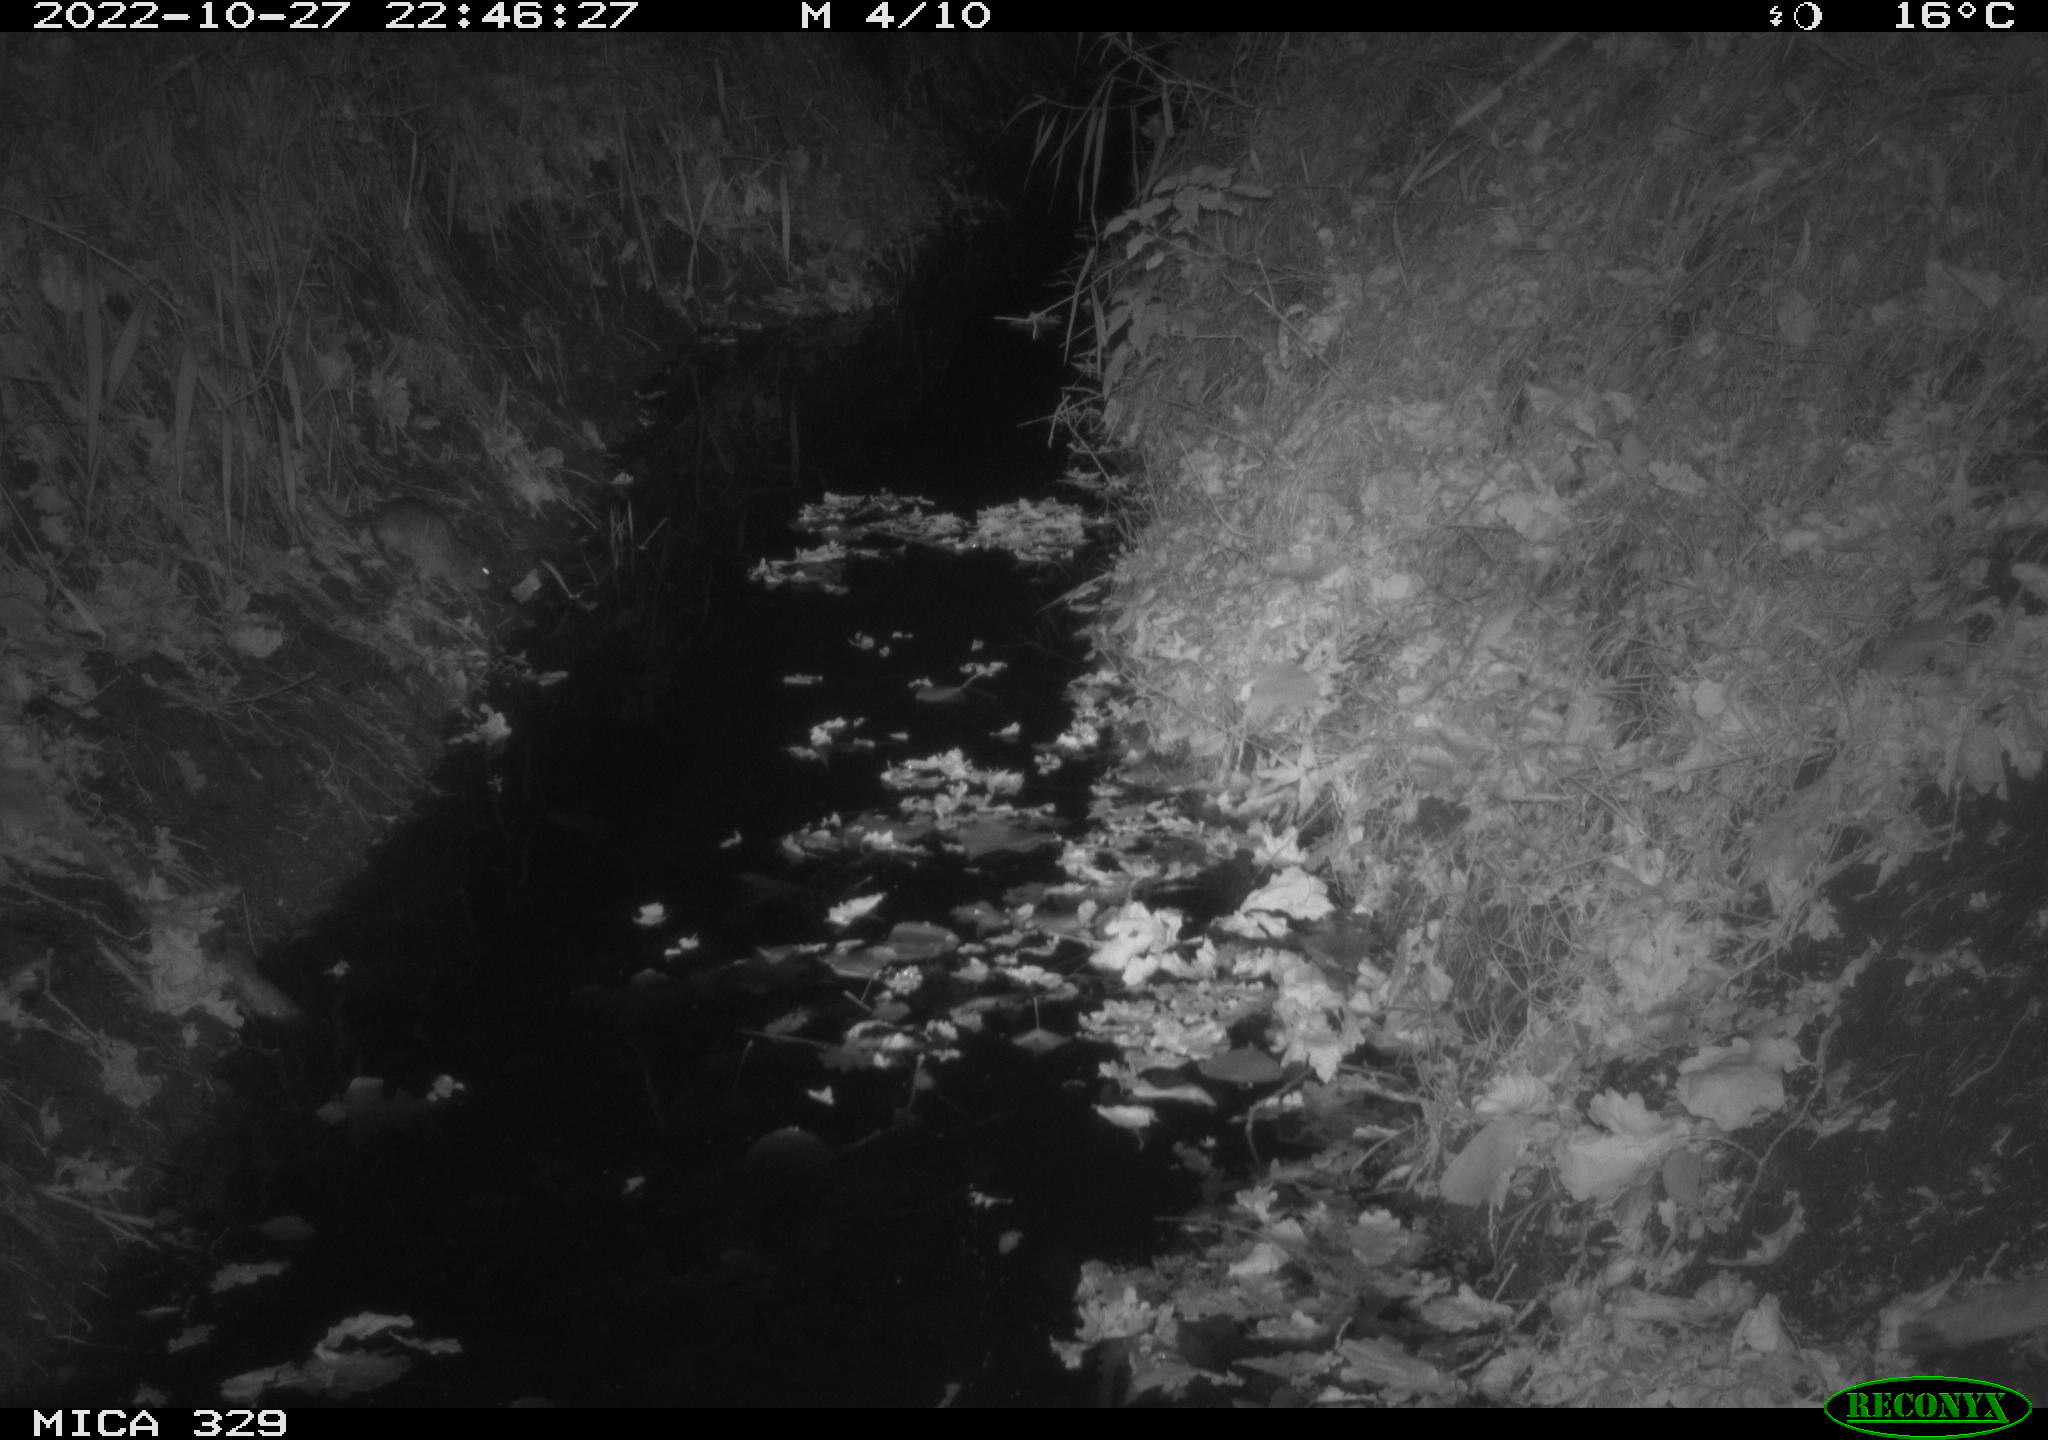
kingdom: Animalia
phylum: Chordata
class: Mammalia
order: Rodentia
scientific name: Rodentia
